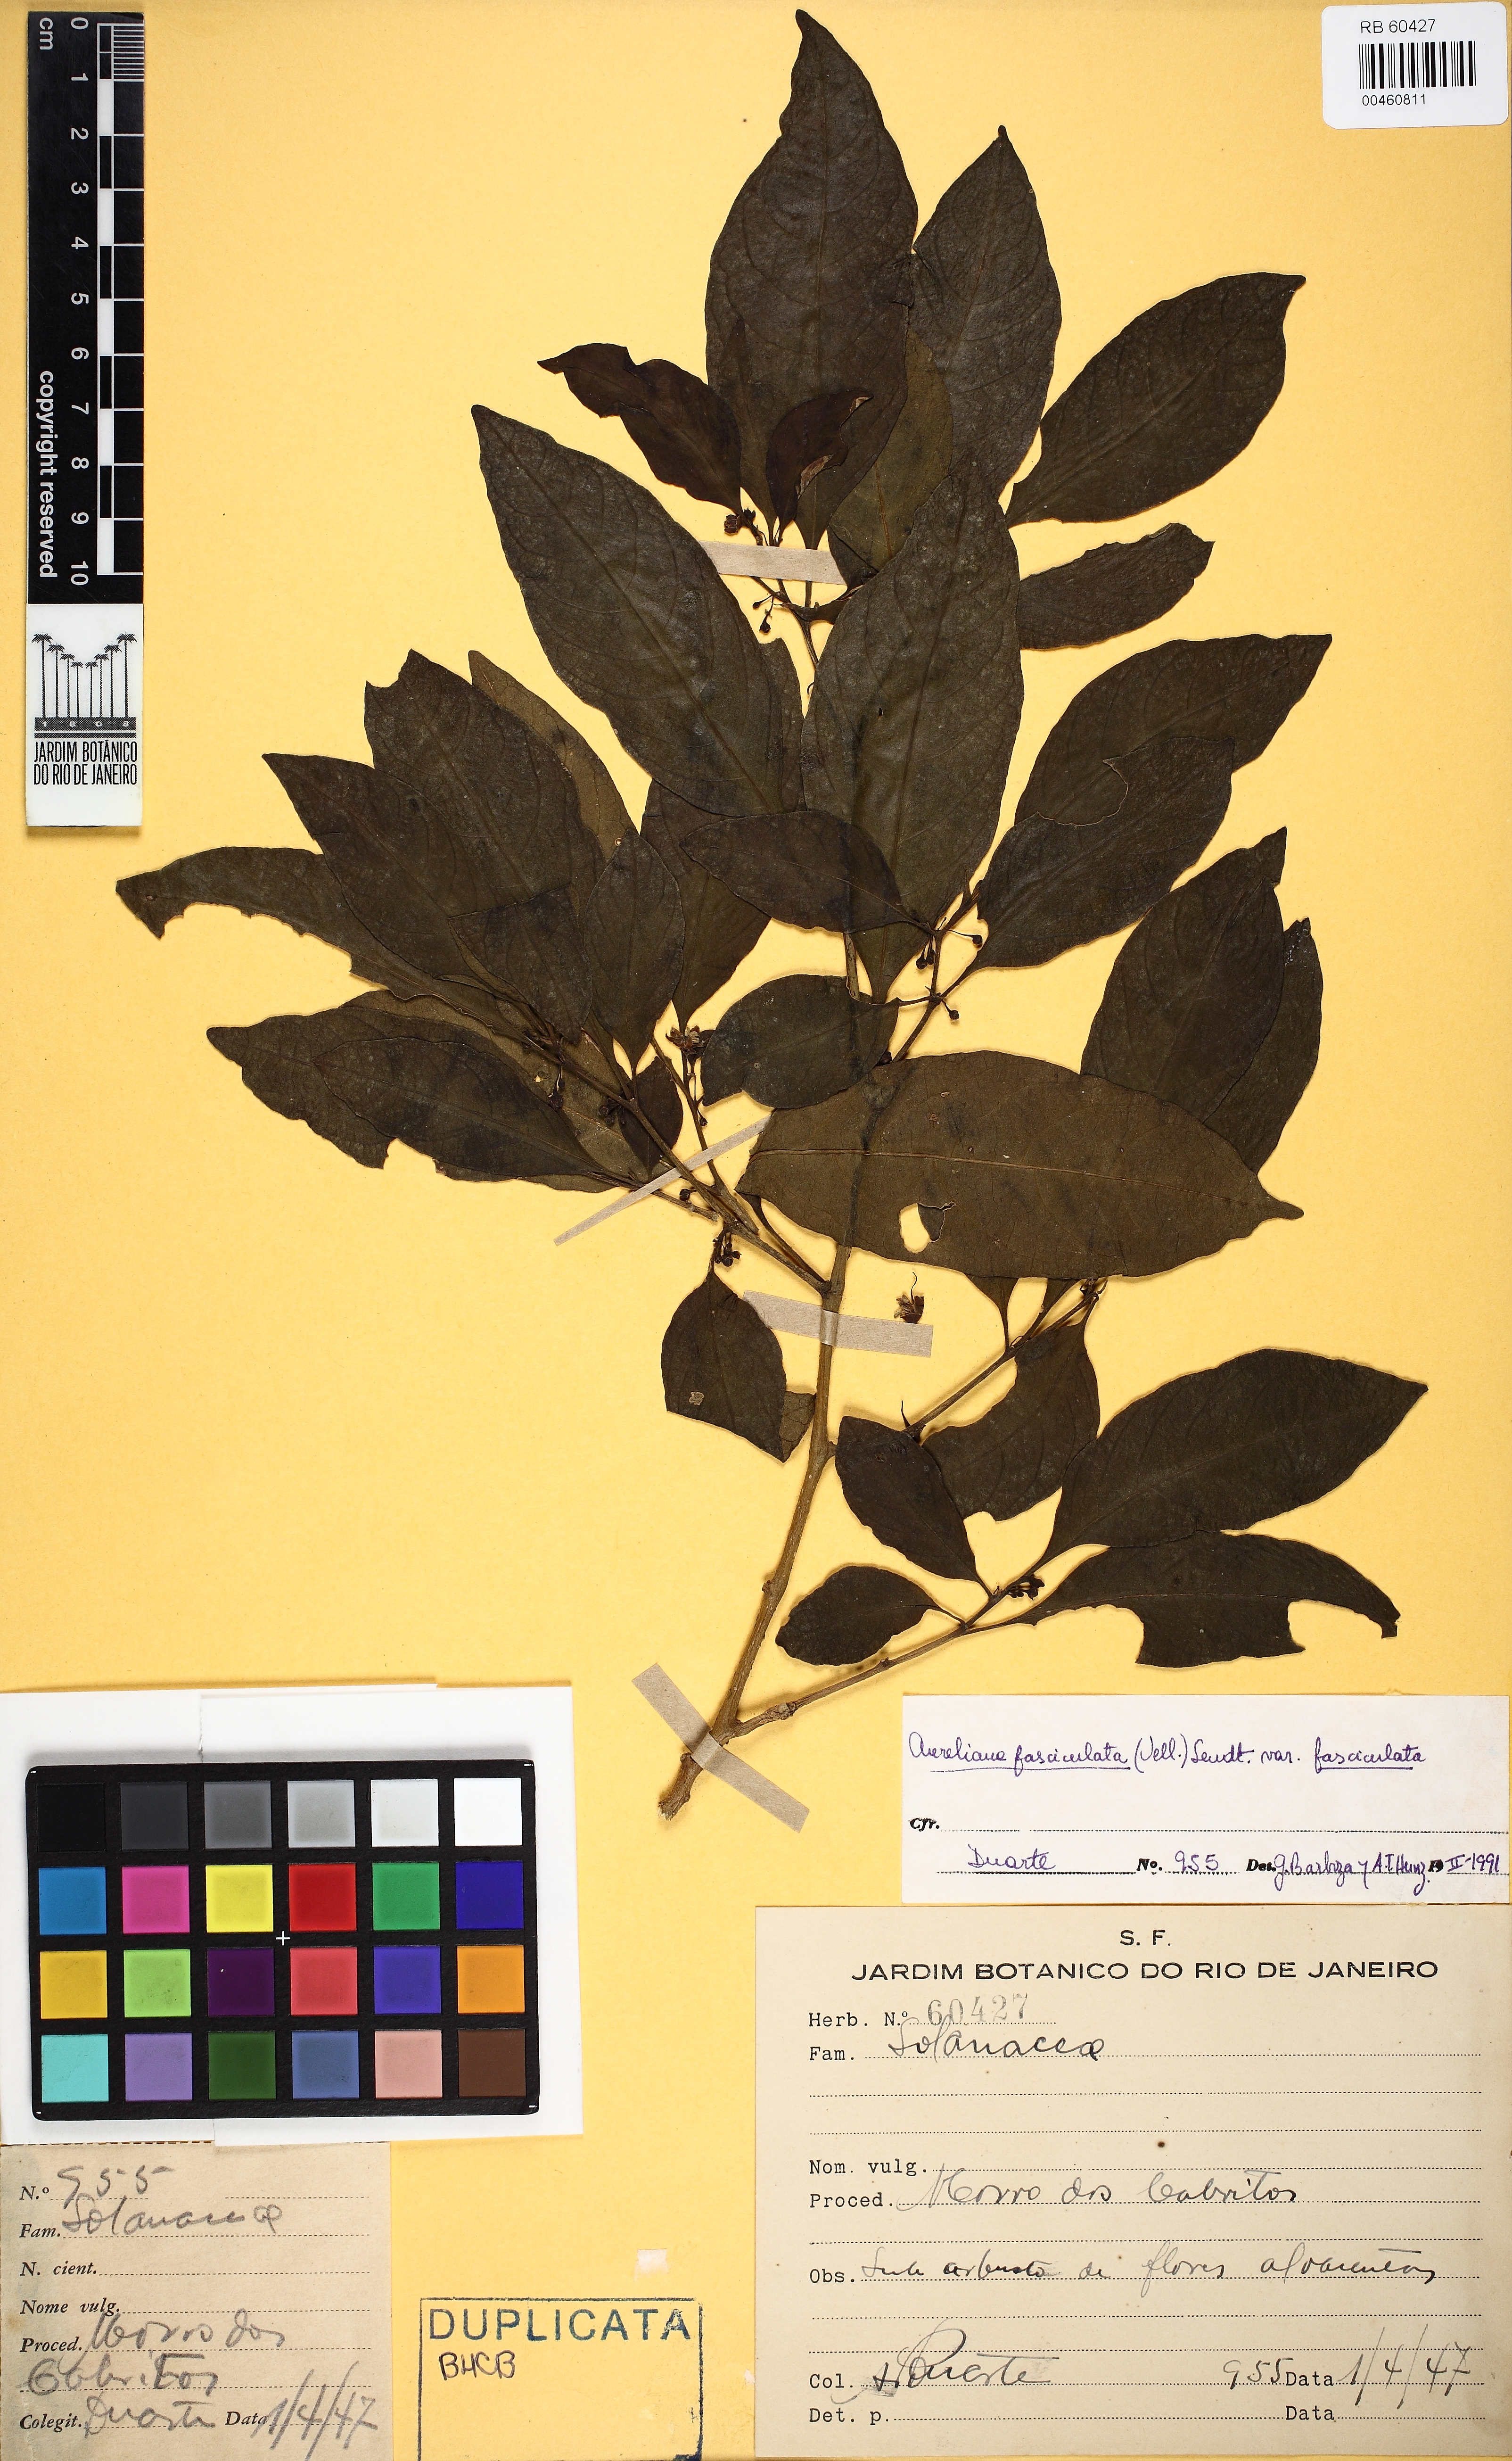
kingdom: Plantae
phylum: Tracheophyta
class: Magnoliopsida
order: Solanales
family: Solanaceae
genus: Athenaea
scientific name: Athenaea fasciculata
